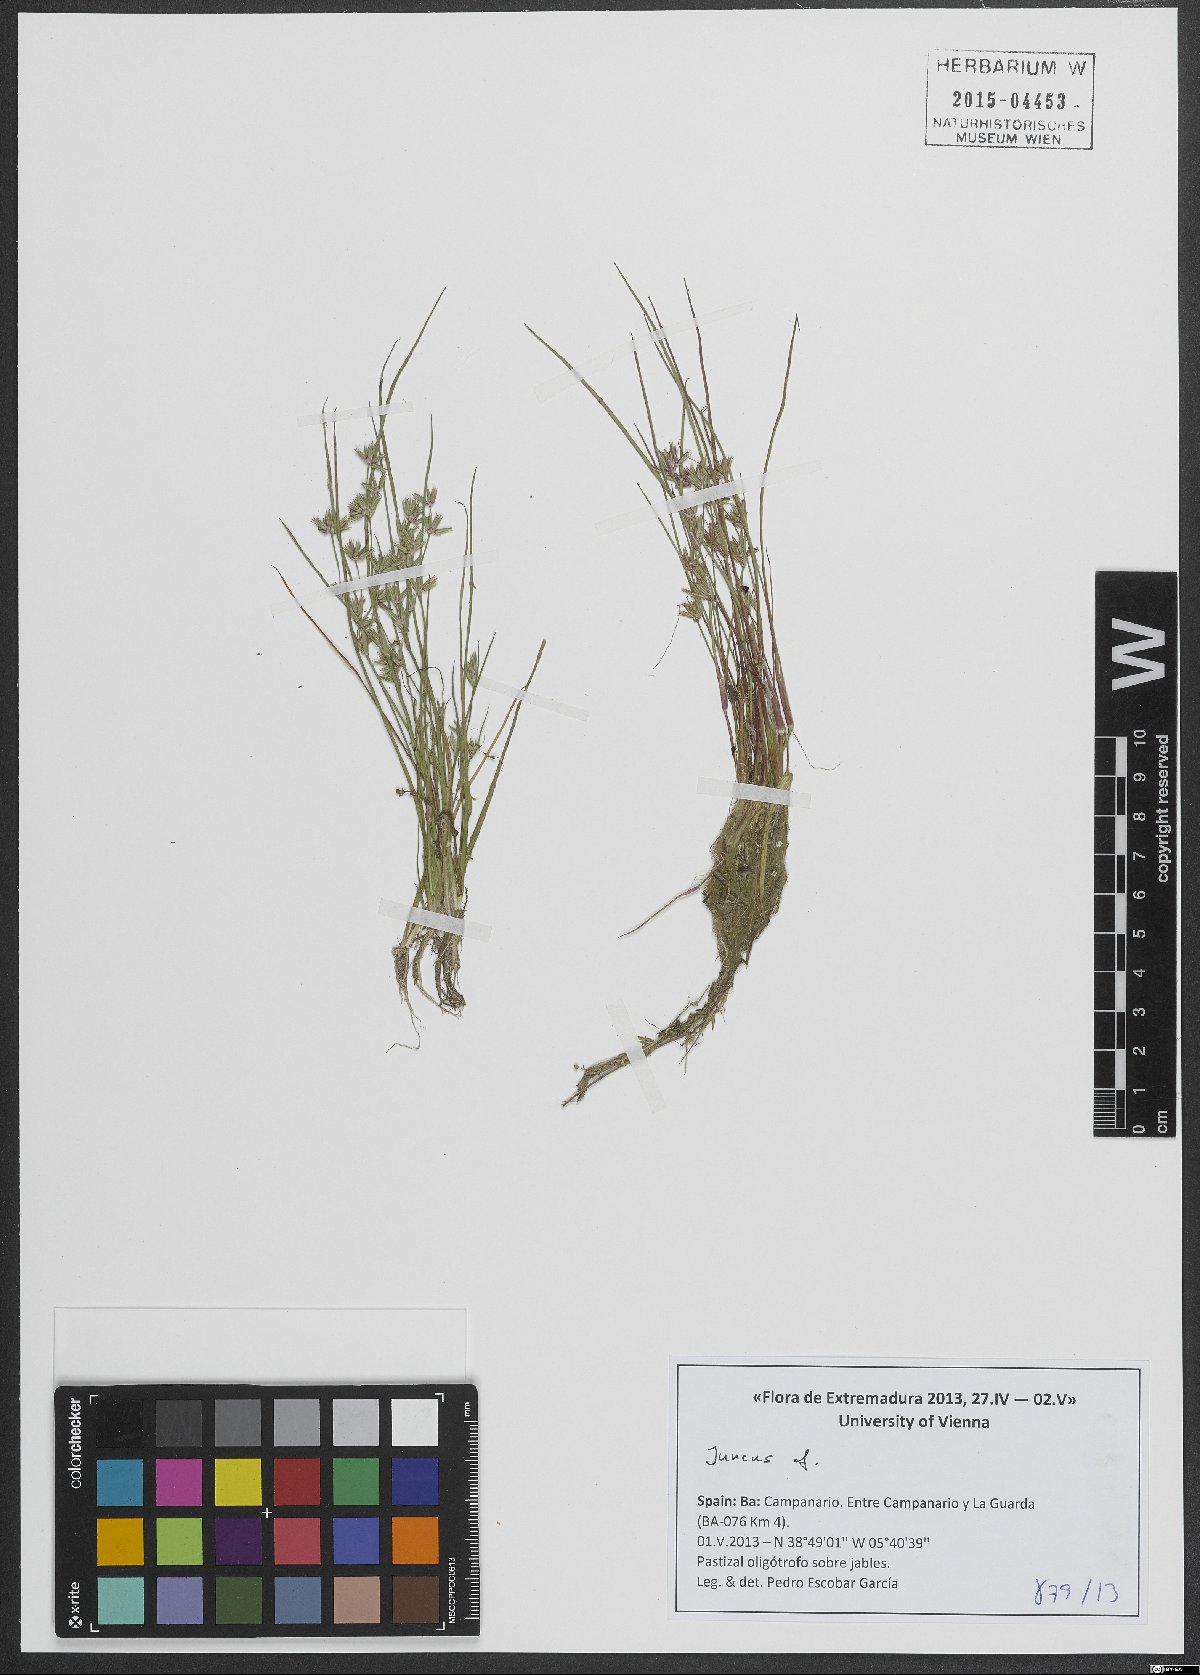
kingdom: Plantae
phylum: Tracheophyta
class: Liliopsida
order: Poales
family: Juncaceae
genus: Juncus
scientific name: Juncus
